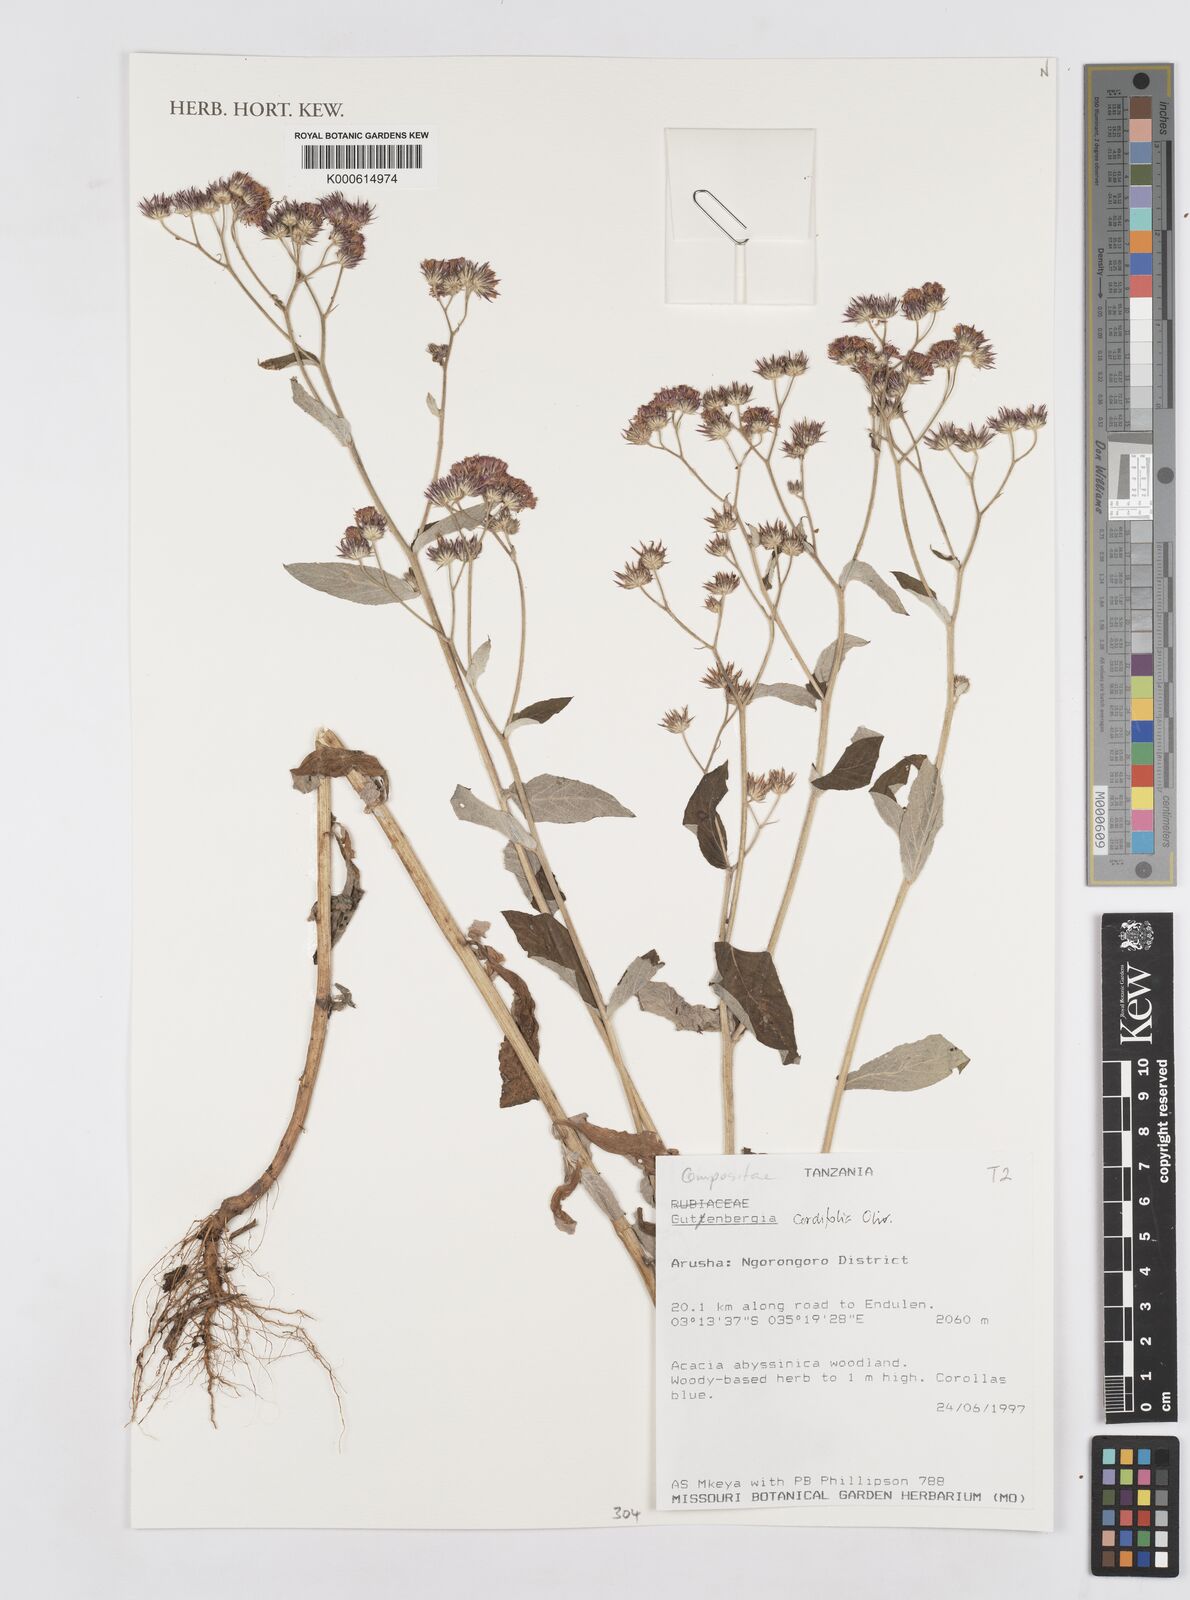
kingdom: Plantae
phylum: Tracheophyta
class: Magnoliopsida
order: Asterales
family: Asteraceae
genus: Gutenbergia
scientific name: Gutenbergia cordifolia
